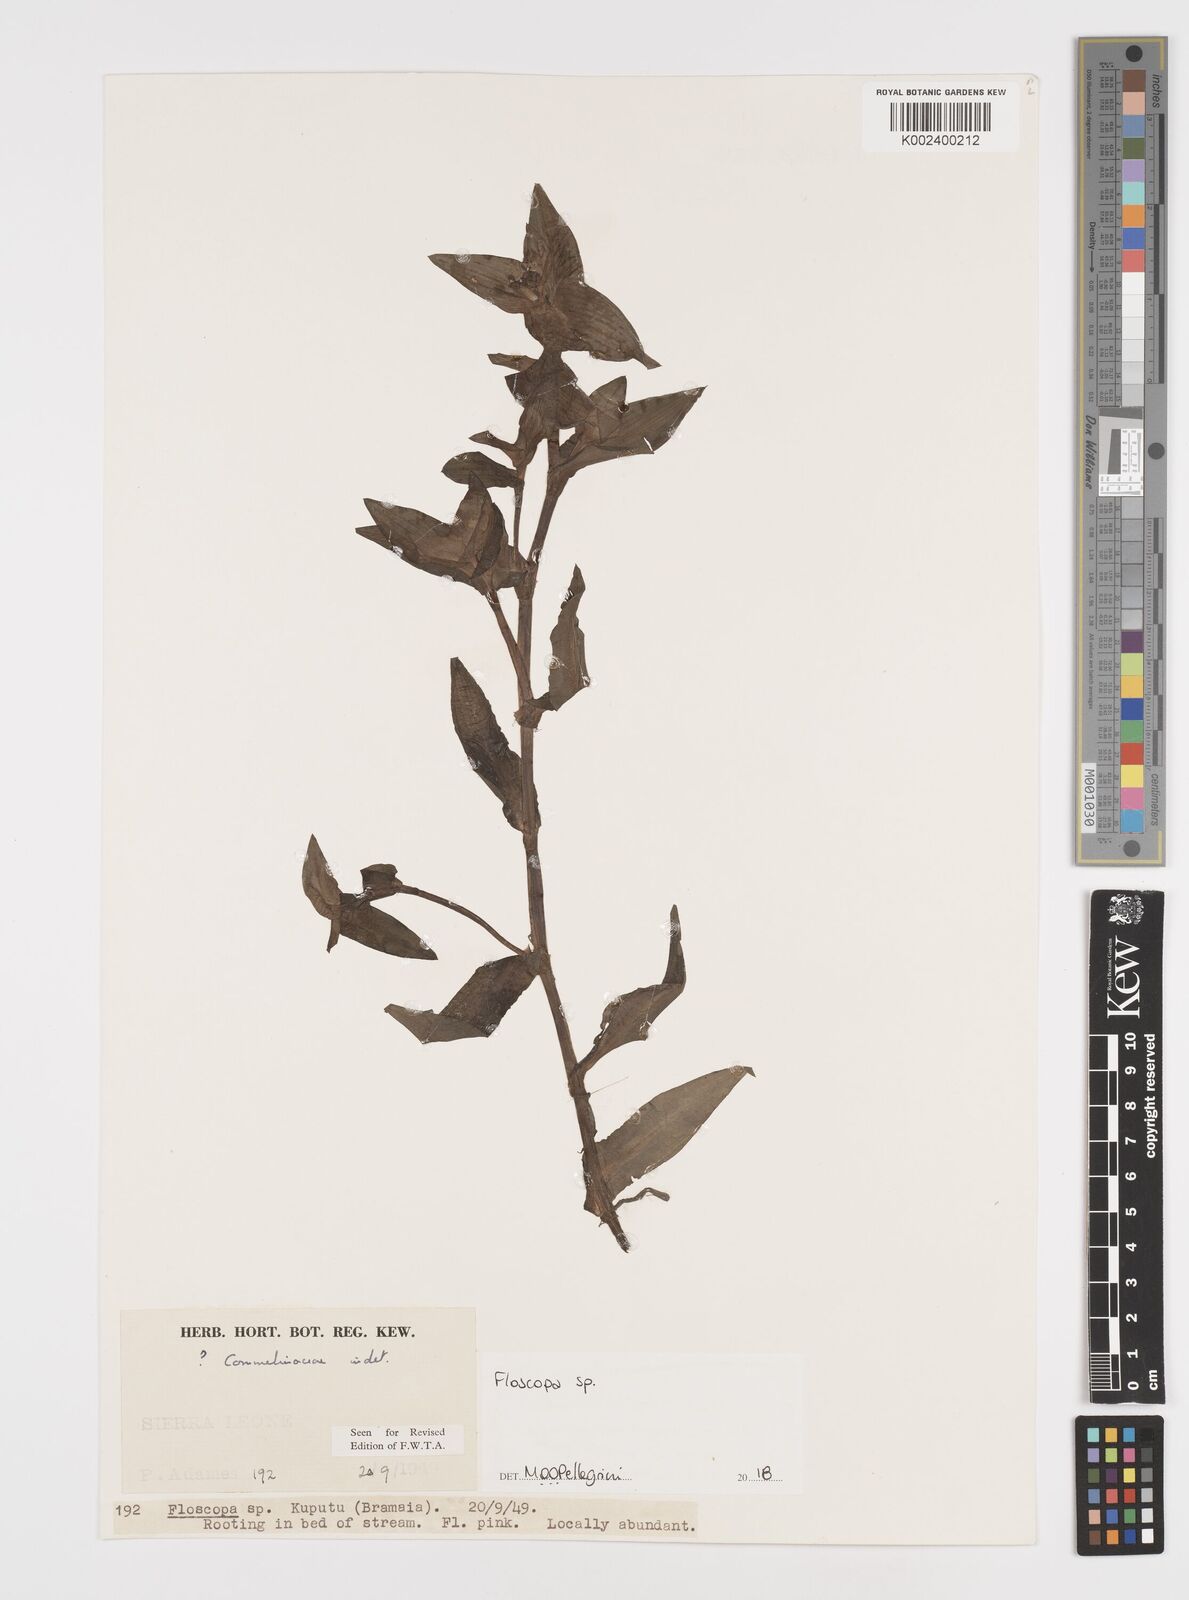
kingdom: Plantae
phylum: Tracheophyta
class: Liliopsida
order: Commelinales
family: Commelinaceae
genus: Floscopa
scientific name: Floscopa
